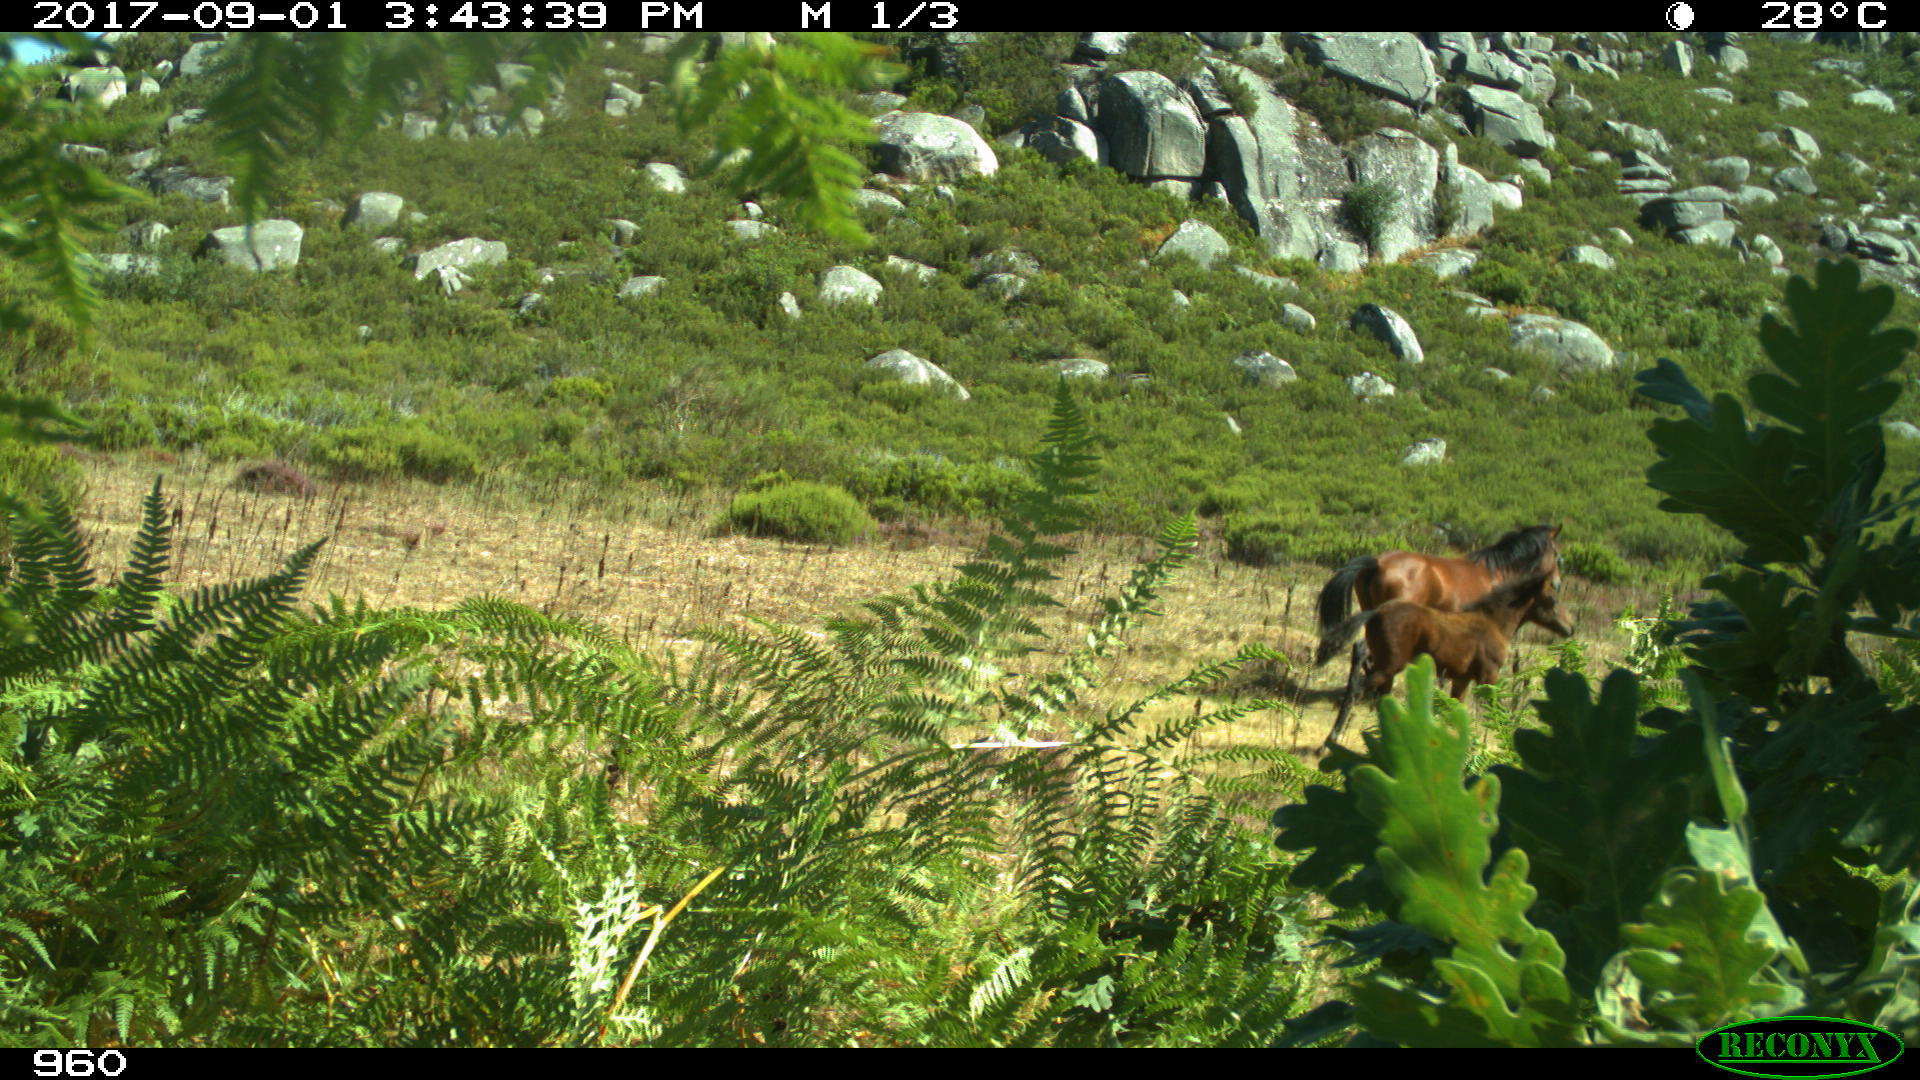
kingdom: Animalia
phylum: Chordata
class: Mammalia
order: Perissodactyla
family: Equidae
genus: Equus
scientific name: Equus caballus
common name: Horse
